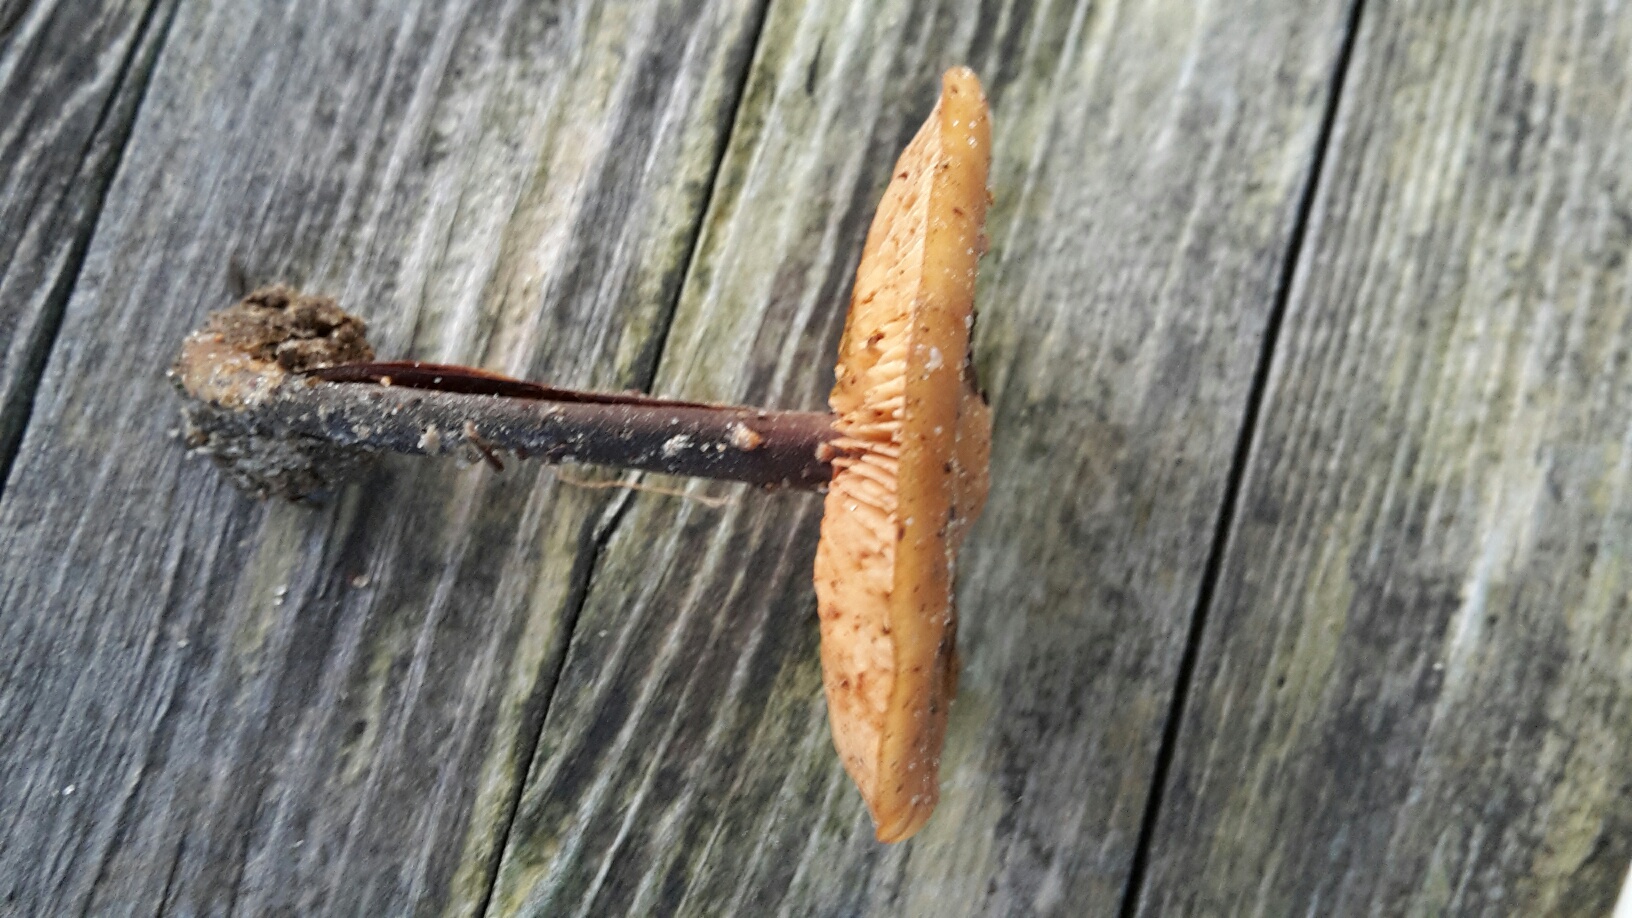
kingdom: Fungi
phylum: Basidiomycota
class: Agaricomycetes
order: Agaricales
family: Macrocystidiaceae
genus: Macrocystidia
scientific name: Macrocystidia cucumis
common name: agurkehat
